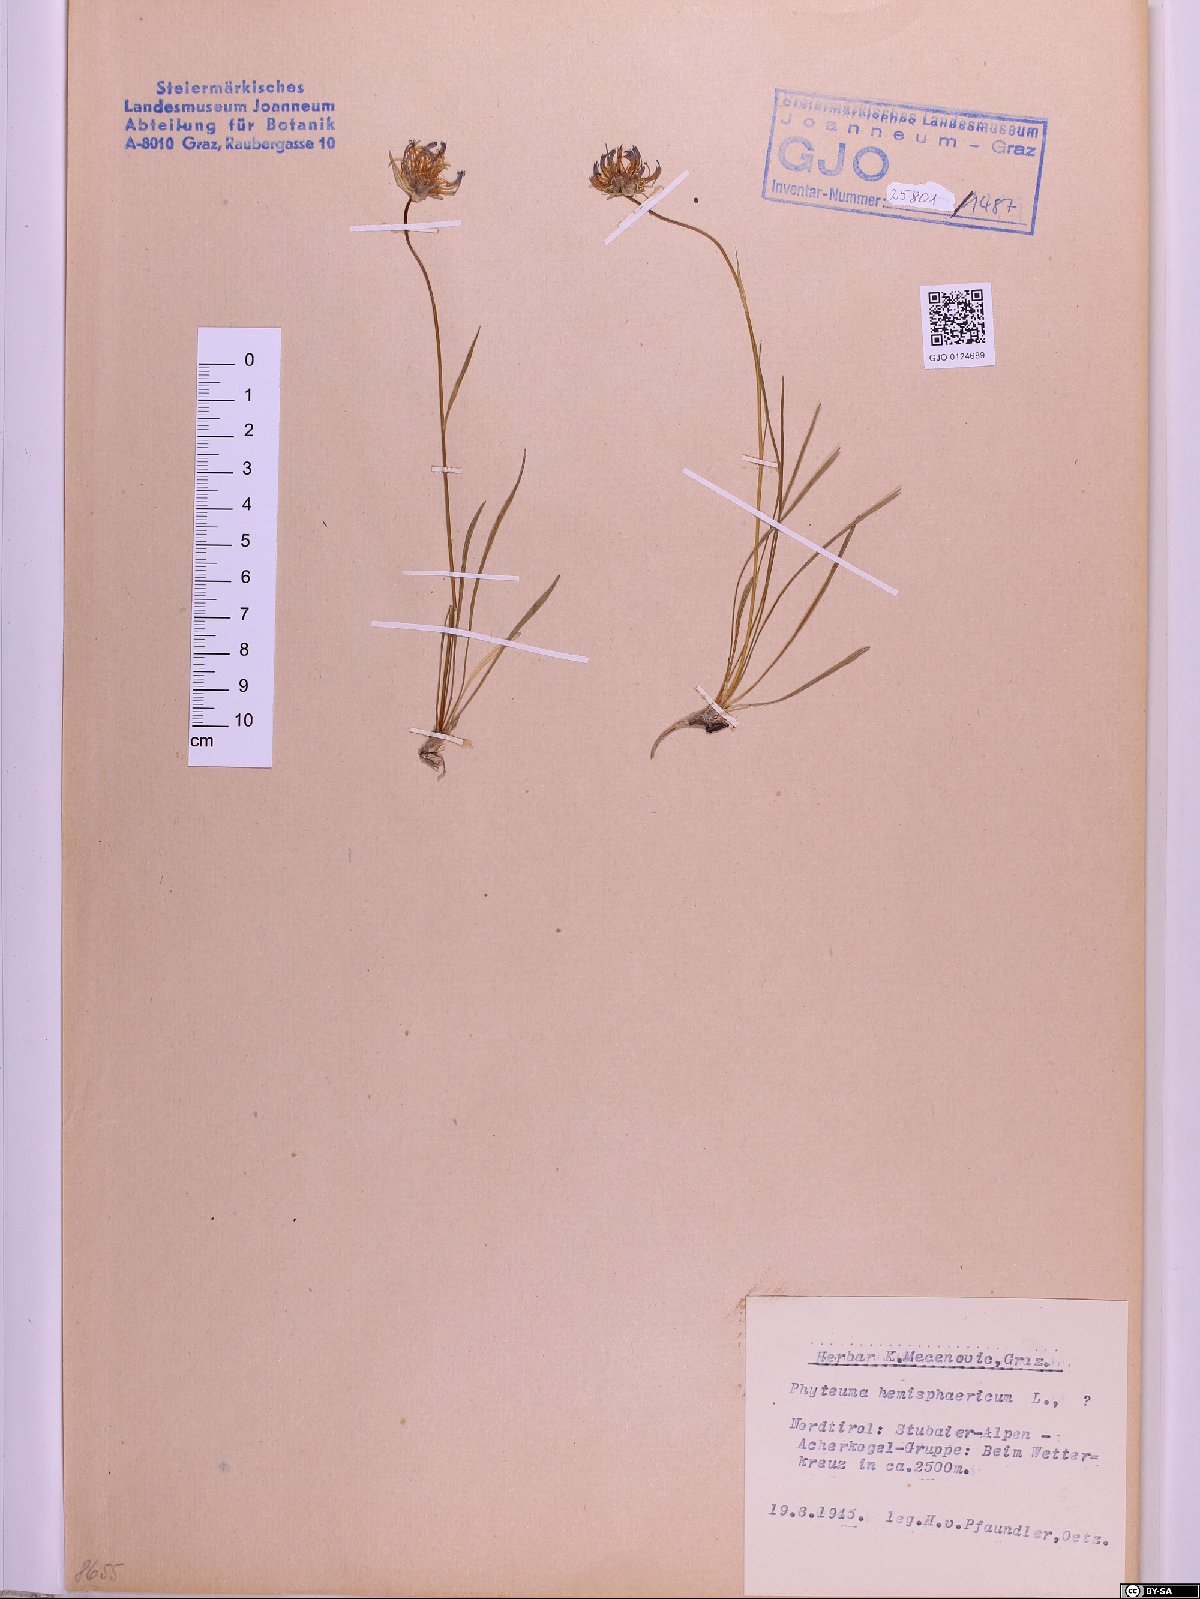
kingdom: Plantae
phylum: Tracheophyta
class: Magnoliopsida
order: Asterales
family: Campanulaceae
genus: Phyteuma
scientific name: Phyteuma hemisphaericum
